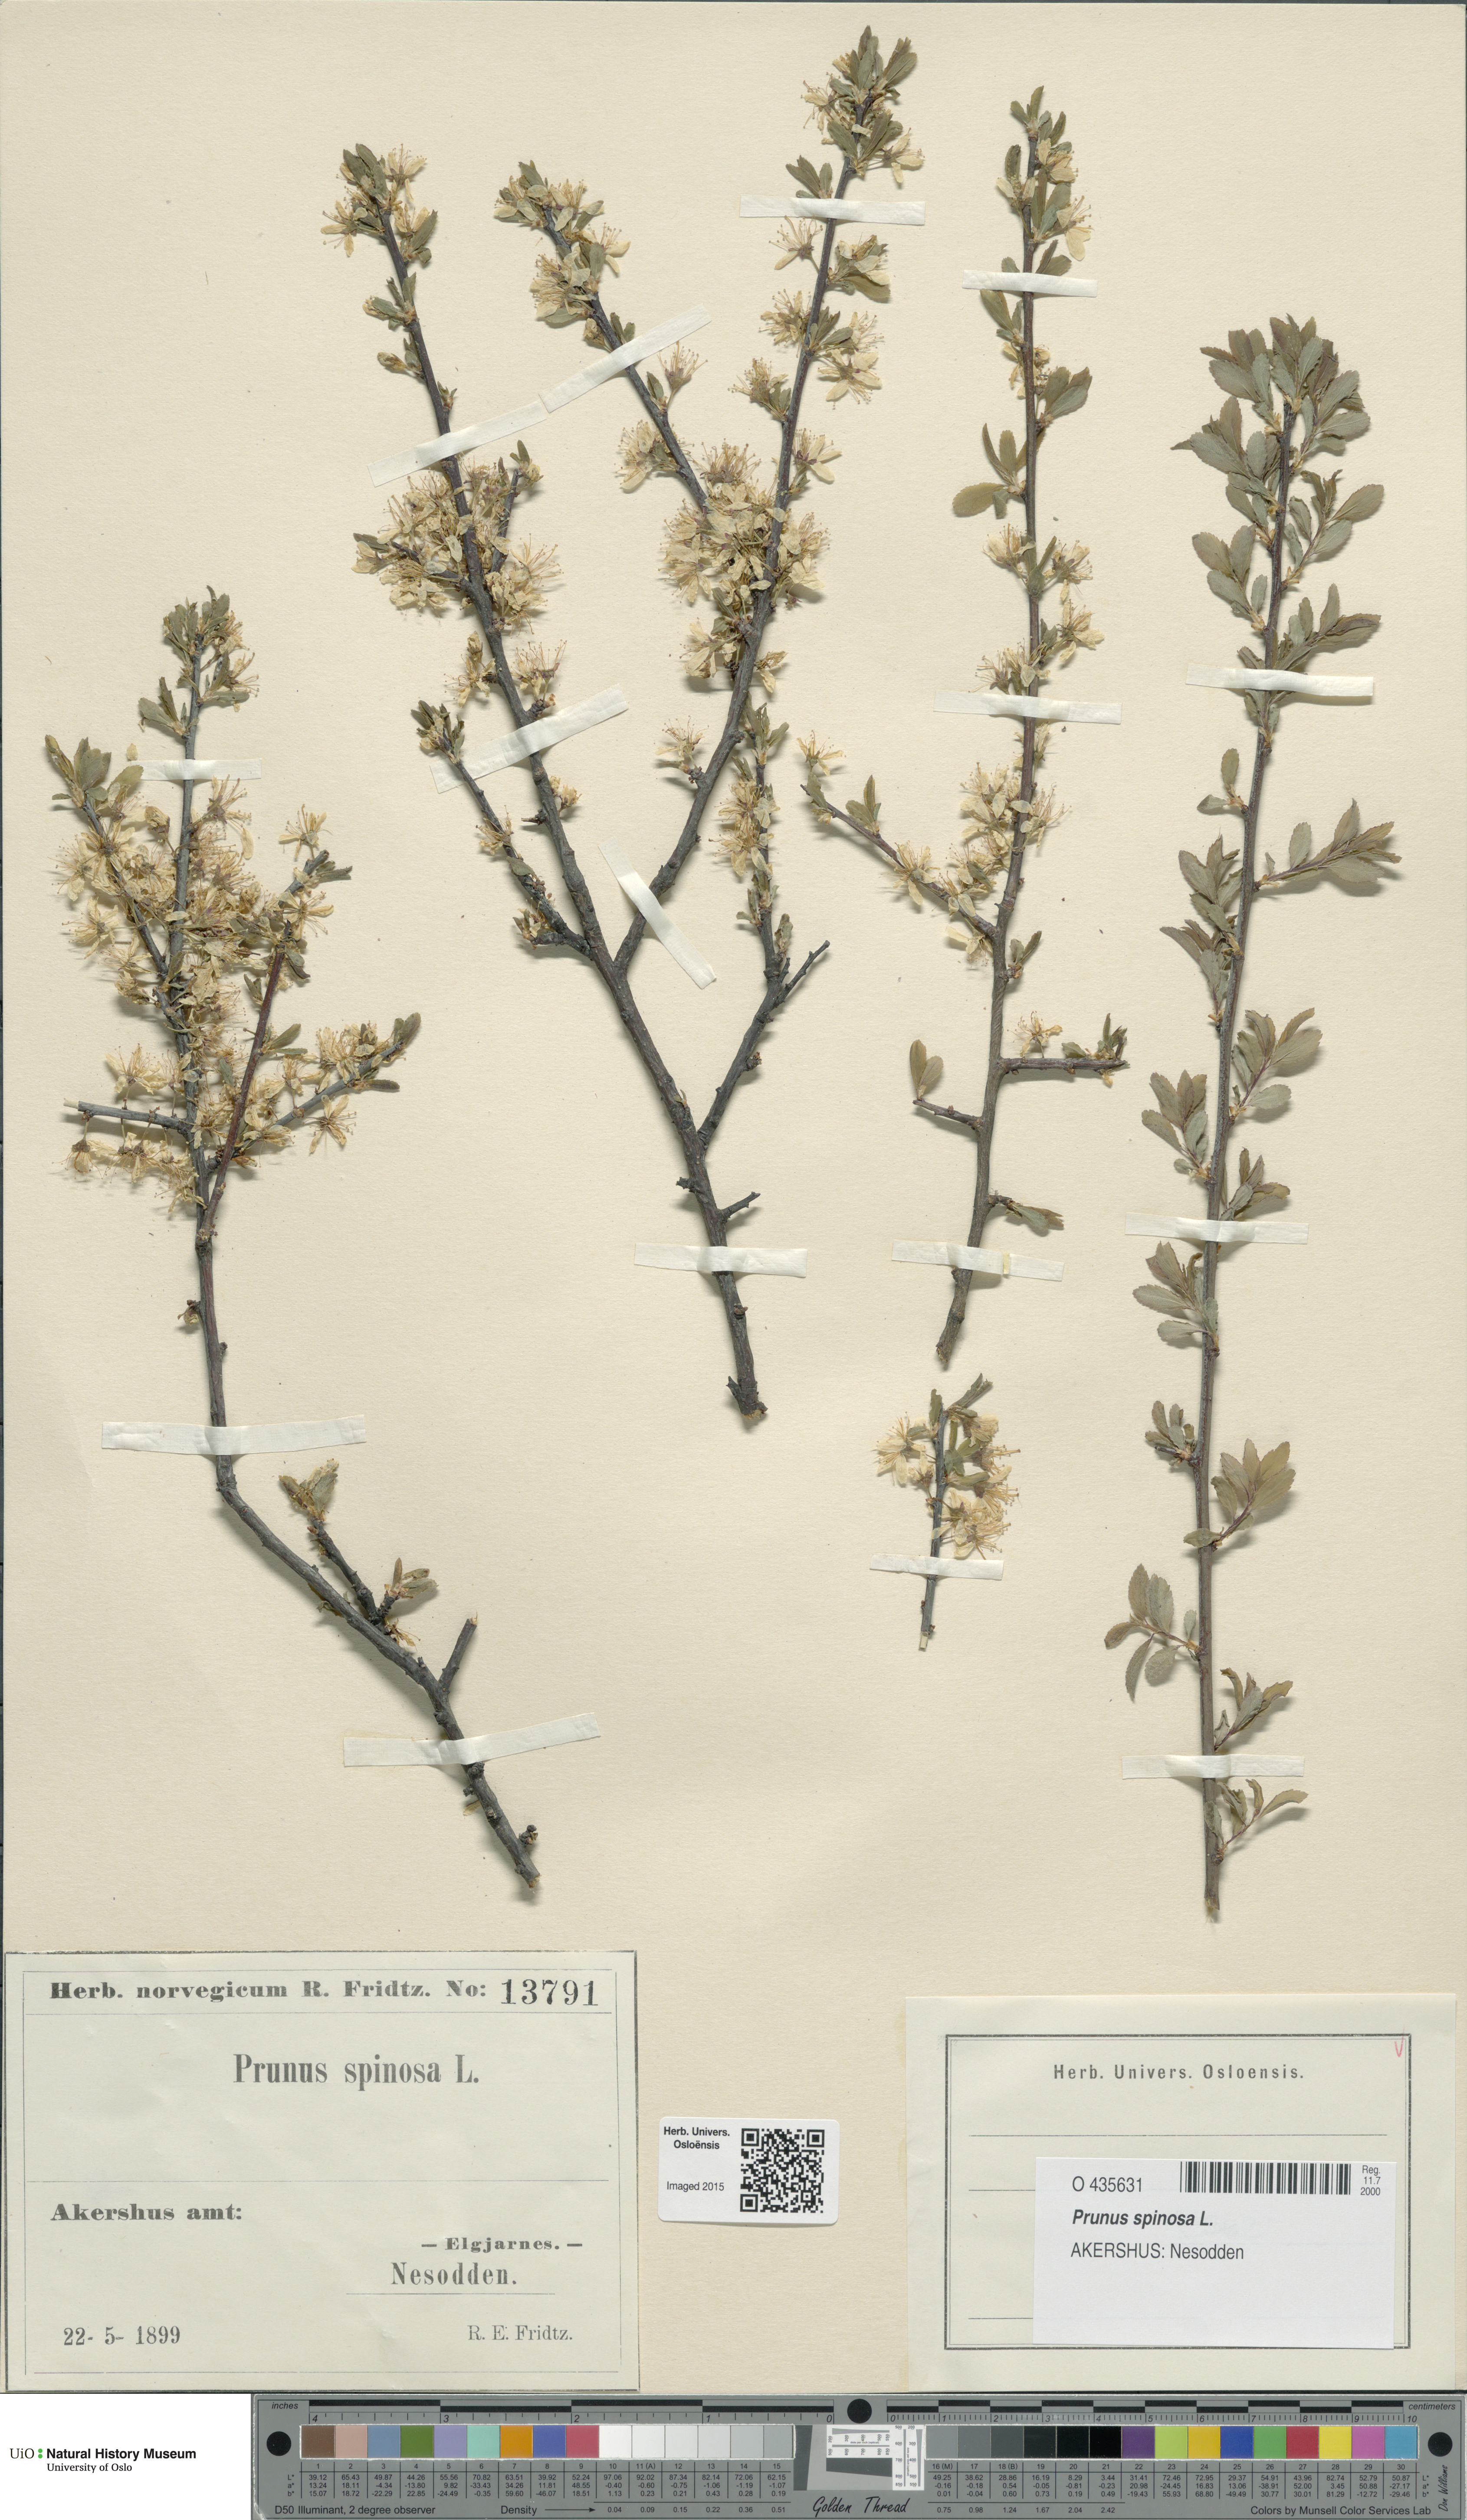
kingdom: Plantae
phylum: Tracheophyta
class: Magnoliopsida
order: Rosales
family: Rosaceae
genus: Prunus
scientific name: Prunus spinosa
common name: Blackthorn
